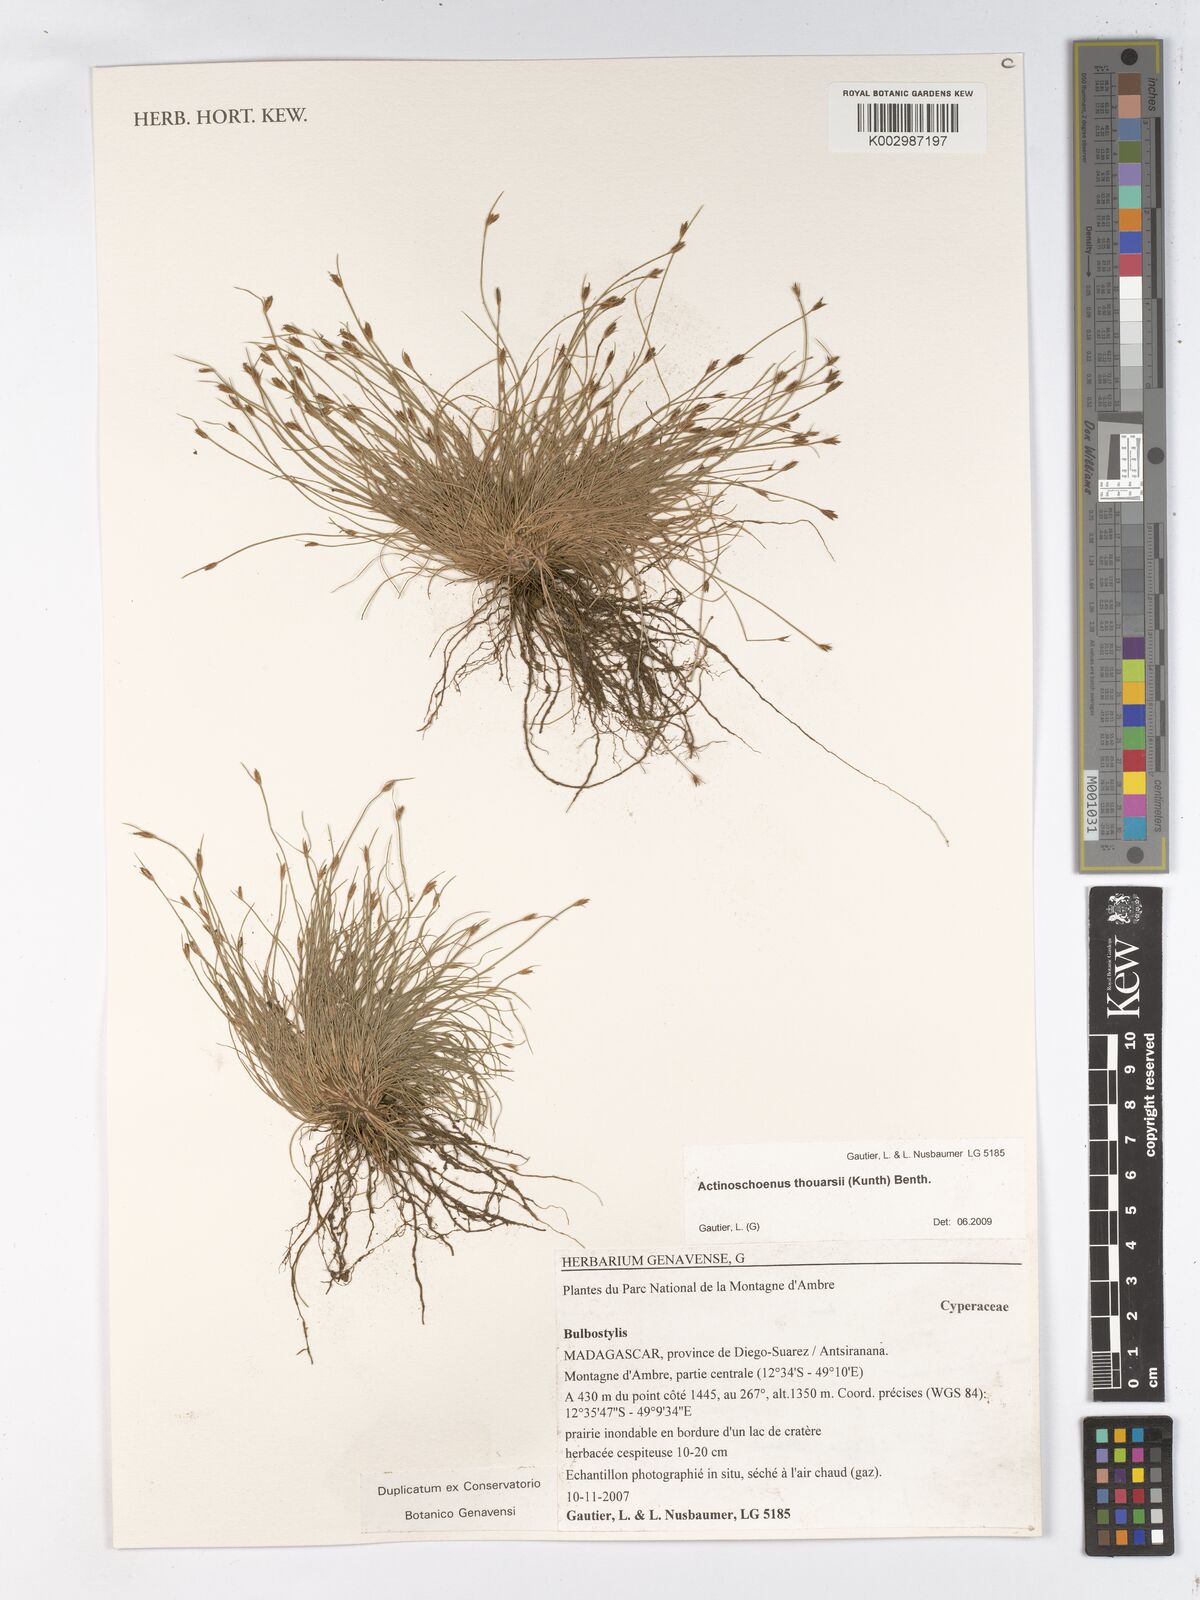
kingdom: Plantae
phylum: Tracheophyta
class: Liliopsida
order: Poales
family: Cyperaceae
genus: Actinoschoenus
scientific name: Actinoschoenus aphyllus
